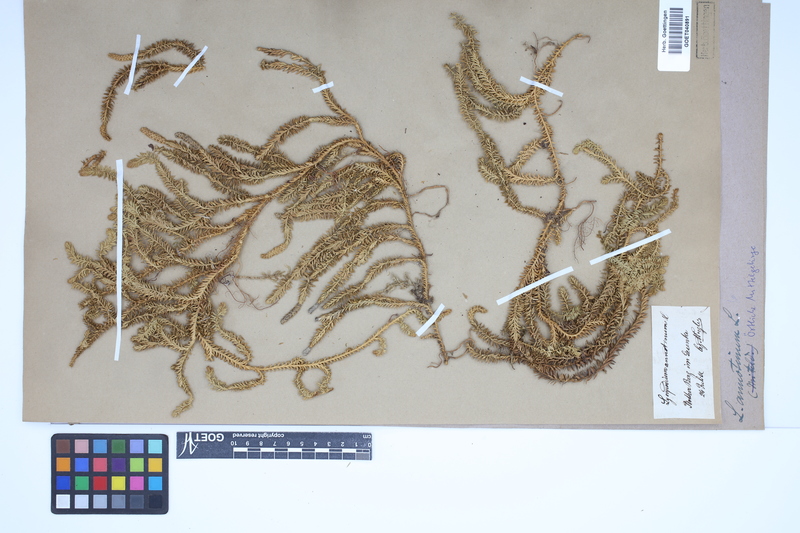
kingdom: Plantae
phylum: Tracheophyta
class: Lycopodiopsida
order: Lycopodiales
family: Lycopodiaceae
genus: Spinulum
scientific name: Spinulum annotinum
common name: Interrupted club-moss
